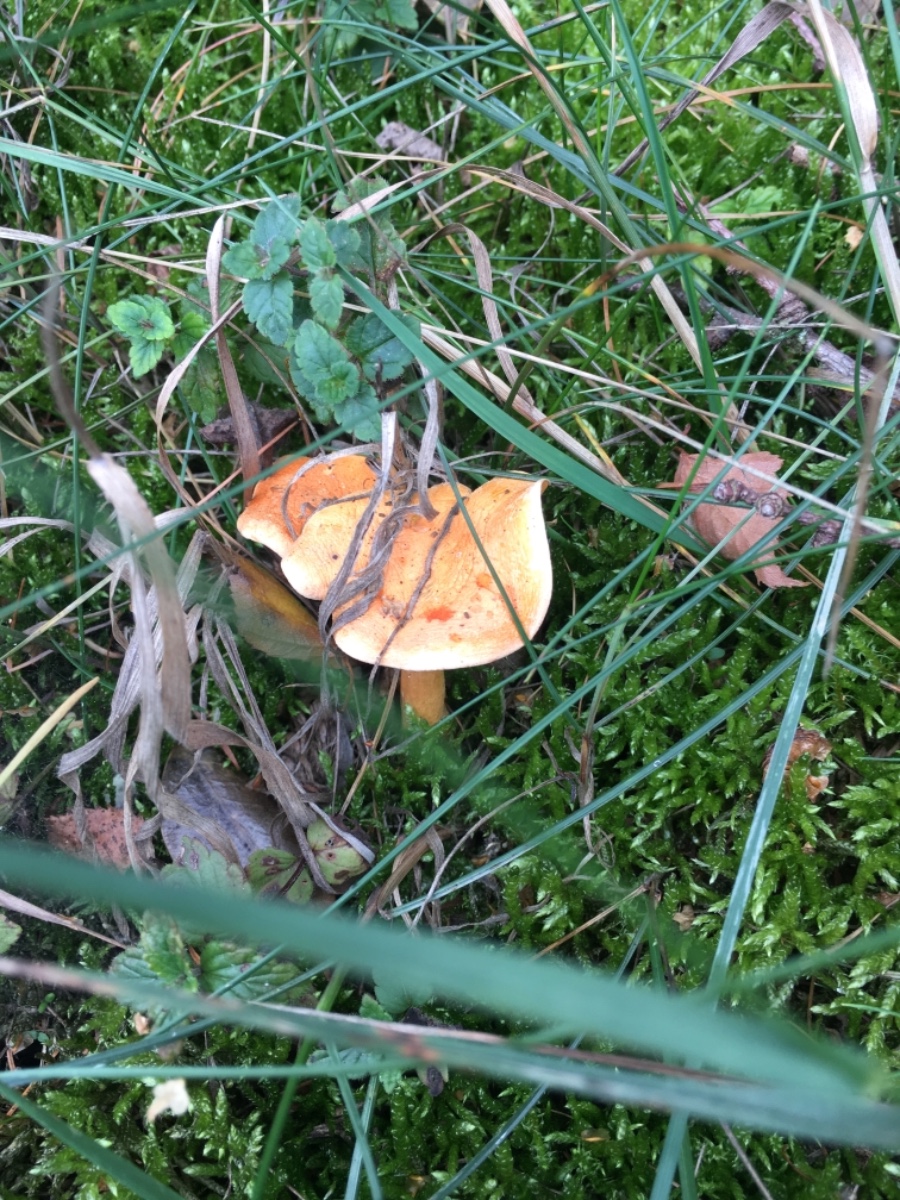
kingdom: Fungi
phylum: Basidiomycota
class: Agaricomycetes
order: Boletales
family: Hygrophoropsidaceae
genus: Hygrophoropsis
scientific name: Hygrophoropsis aurantiaca
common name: almindelig orangekantarel
